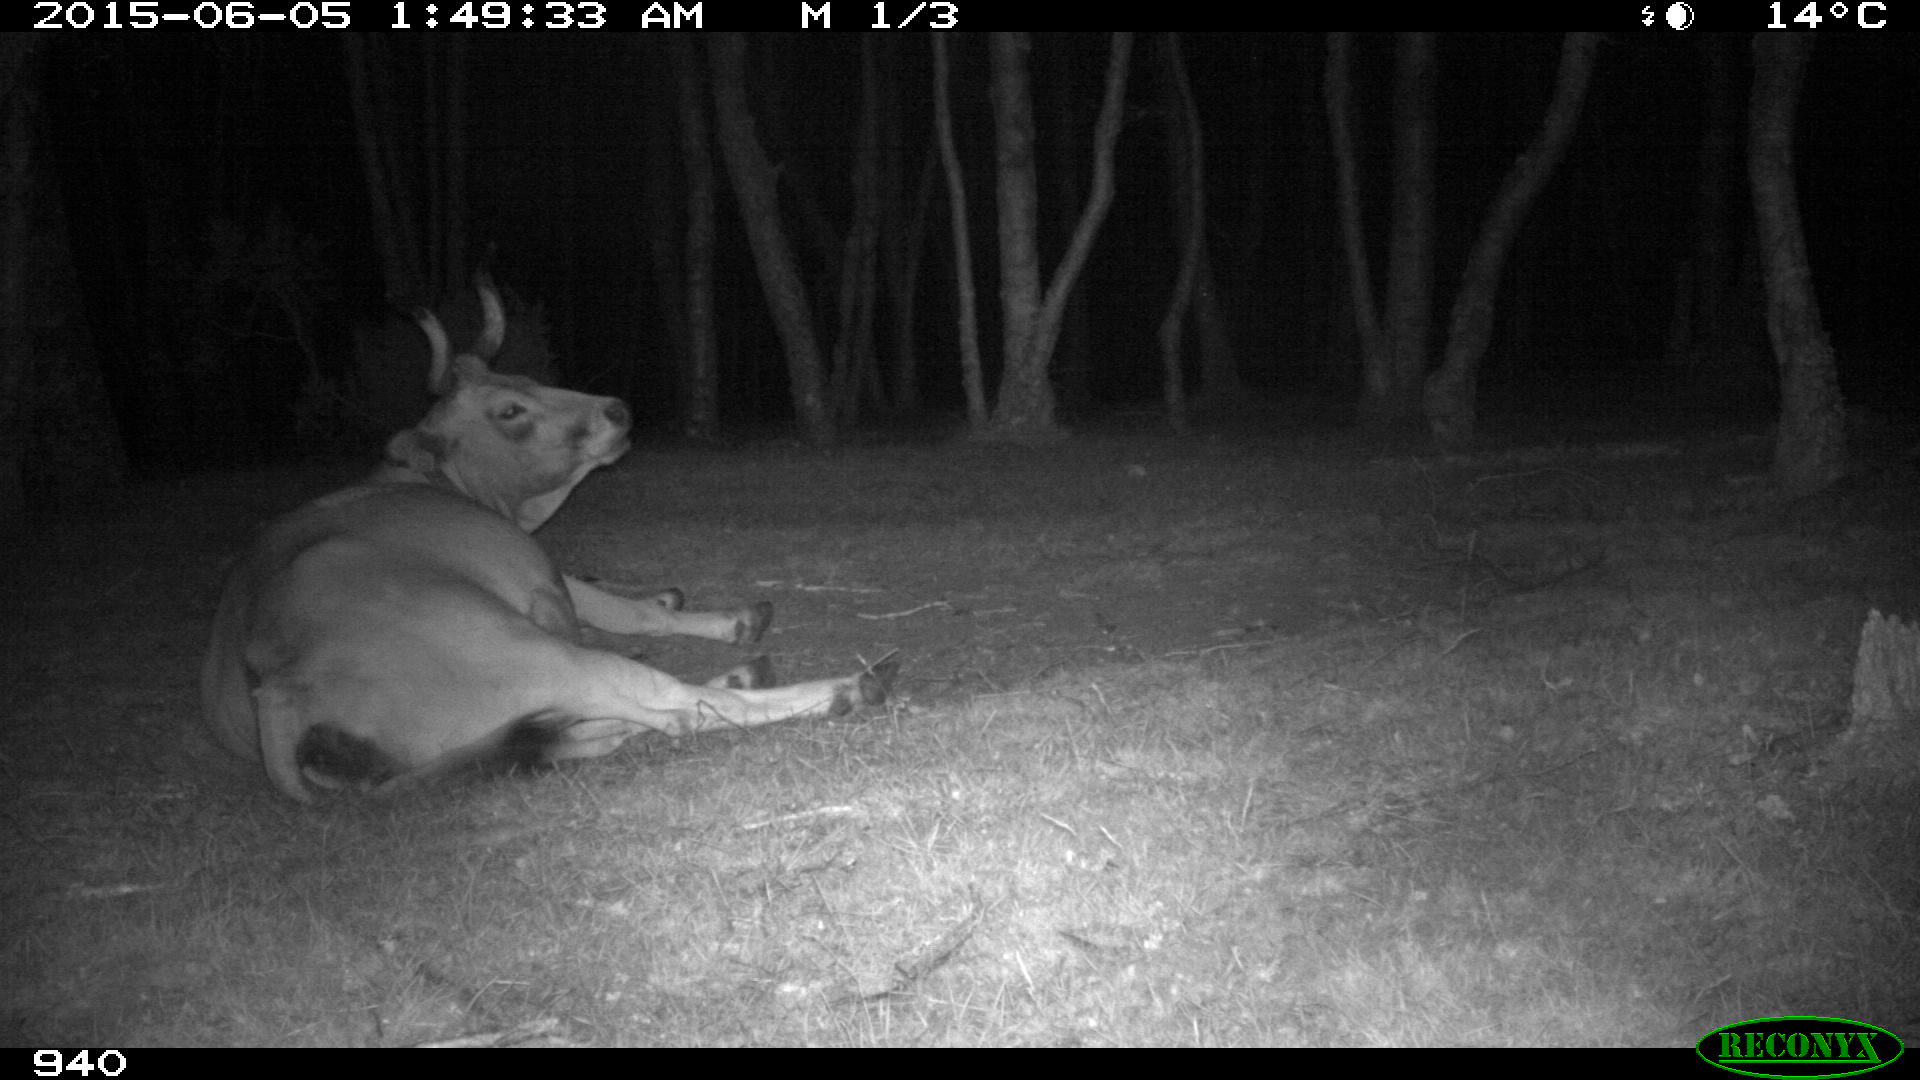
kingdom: Animalia
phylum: Chordata
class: Mammalia
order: Artiodactyla
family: Bovidae
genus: Bos
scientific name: Bos taurus
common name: Domesticated cattle
